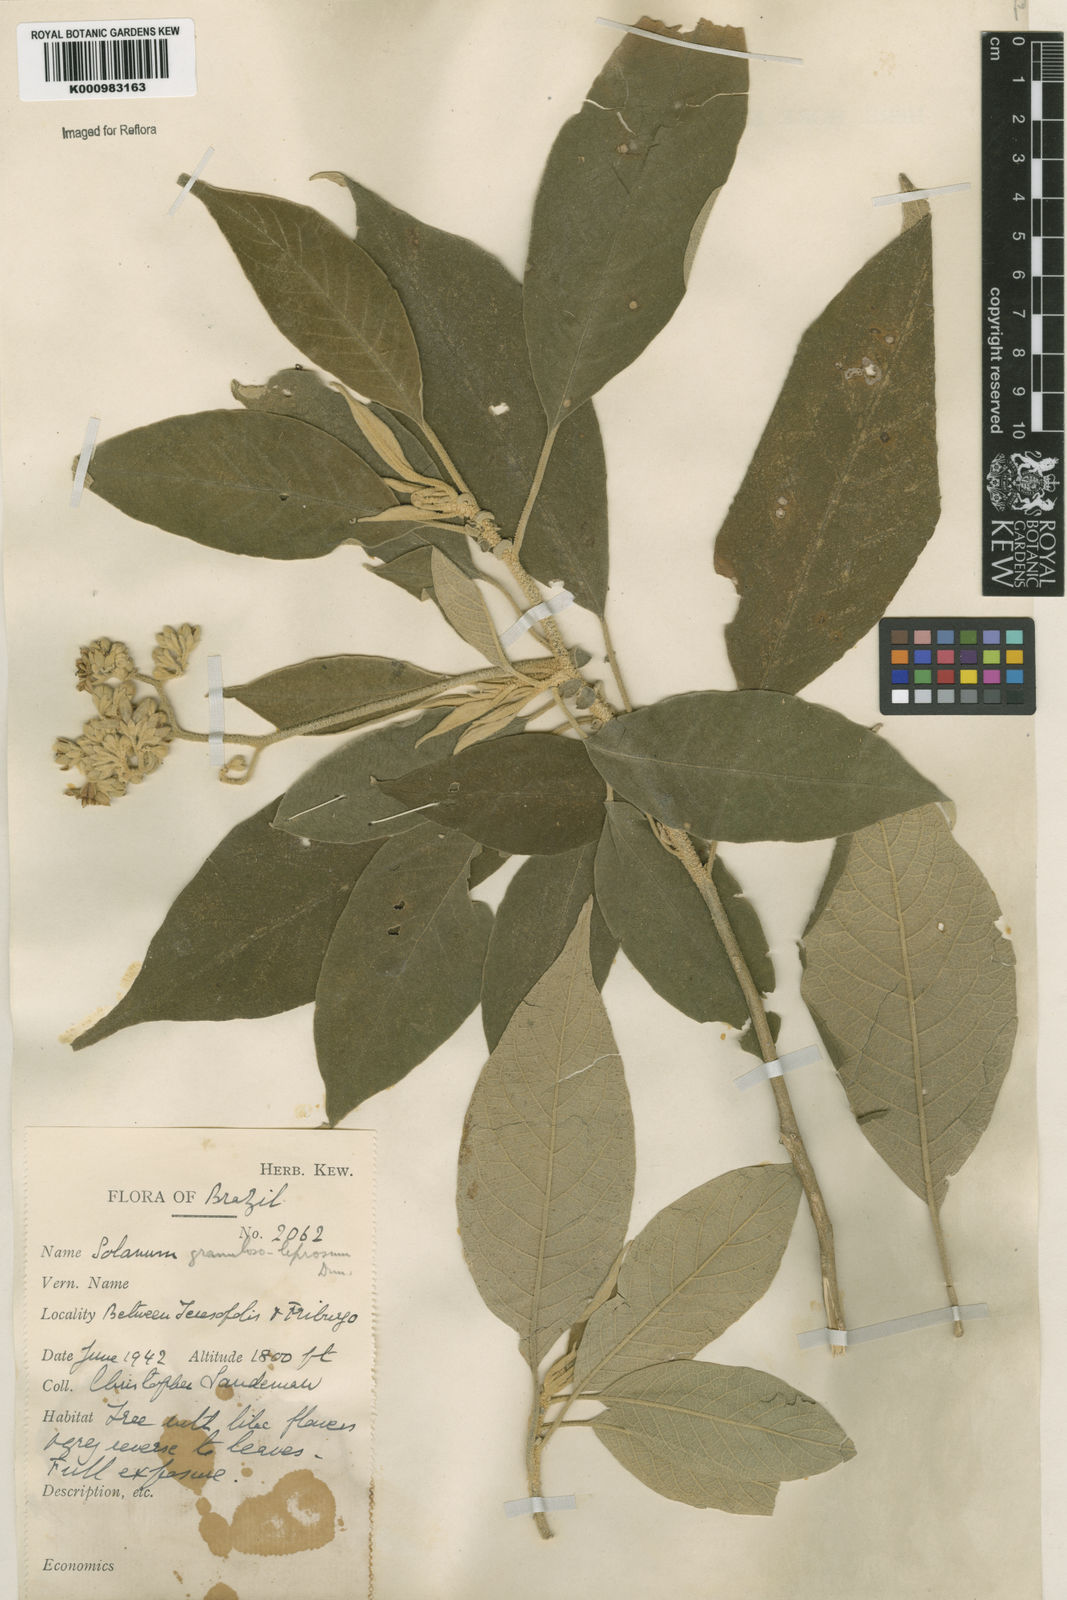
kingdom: Plantae
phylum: Tracheophyta
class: Magnoliopsida
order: Solanales
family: Solanaceae
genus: Solanum
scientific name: Solanum granulosoleprosum
